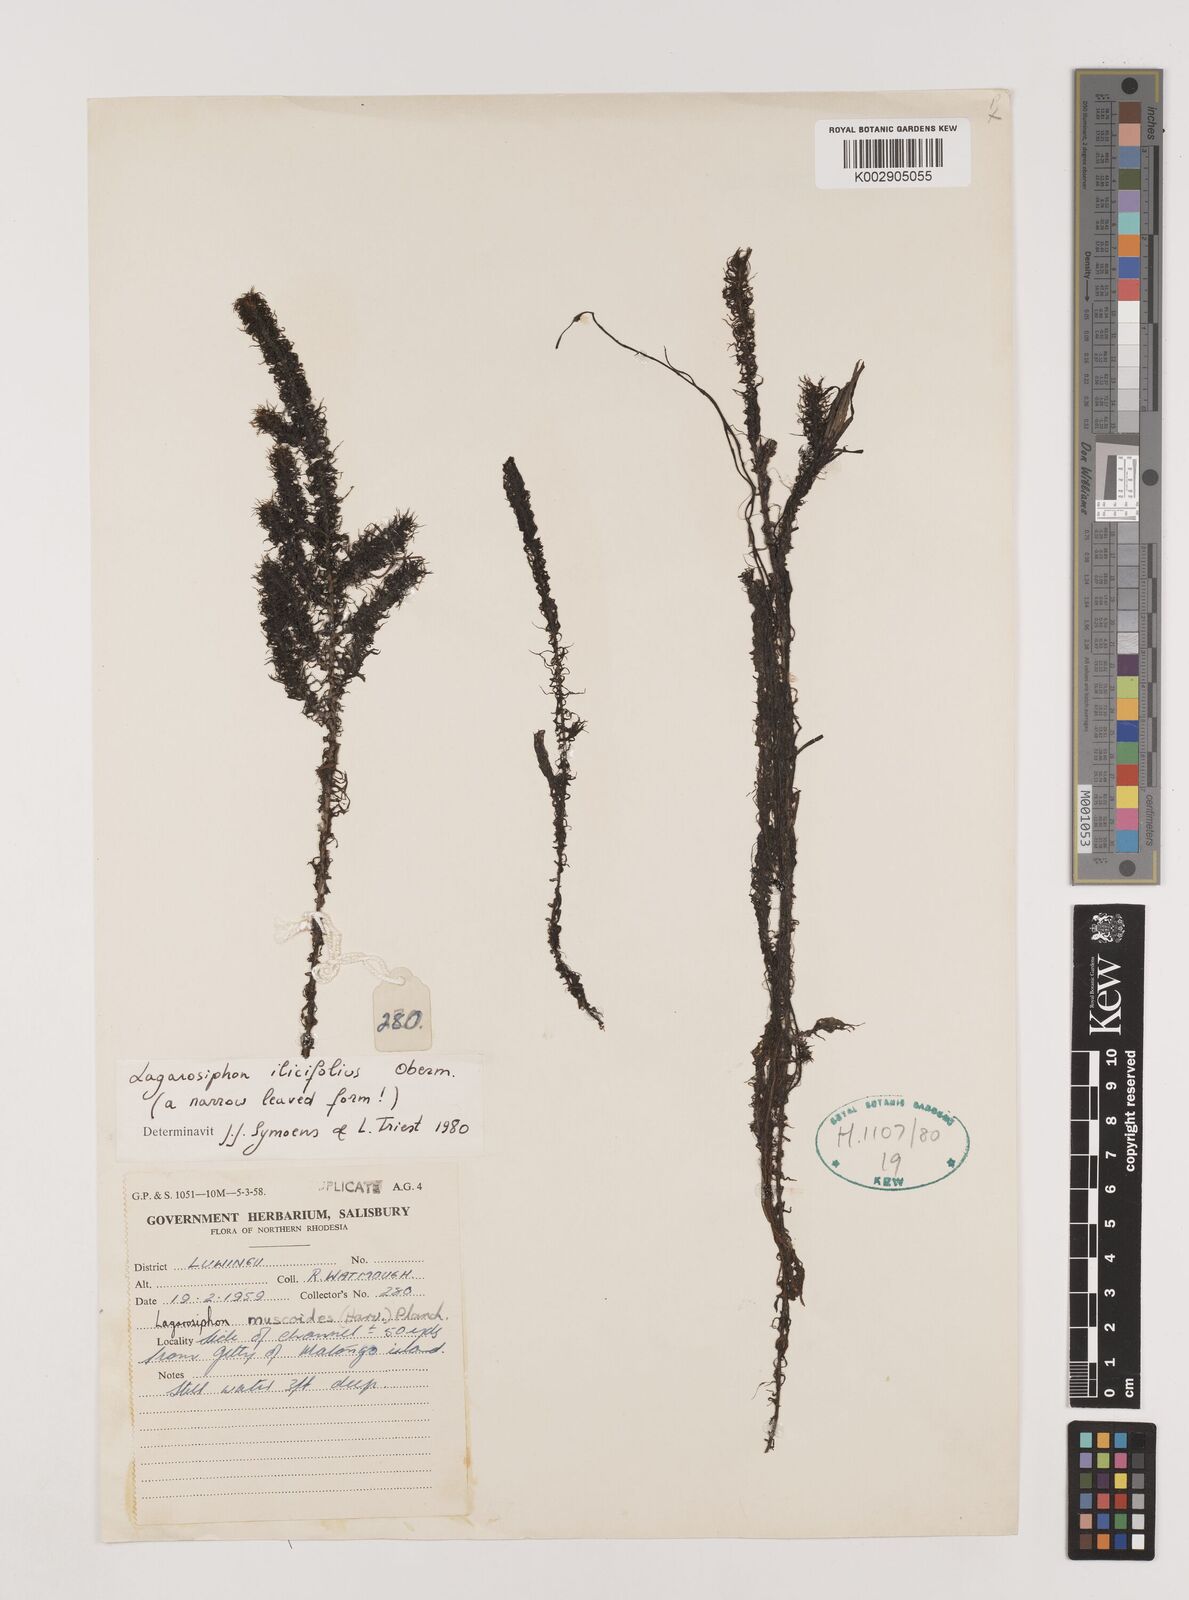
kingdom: Plantae
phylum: Tracheophyta
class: Liliopsida
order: Alismatales
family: Hydrocharitaceae
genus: Lagarosiphon
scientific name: Lagarosiphon ilicifolius
